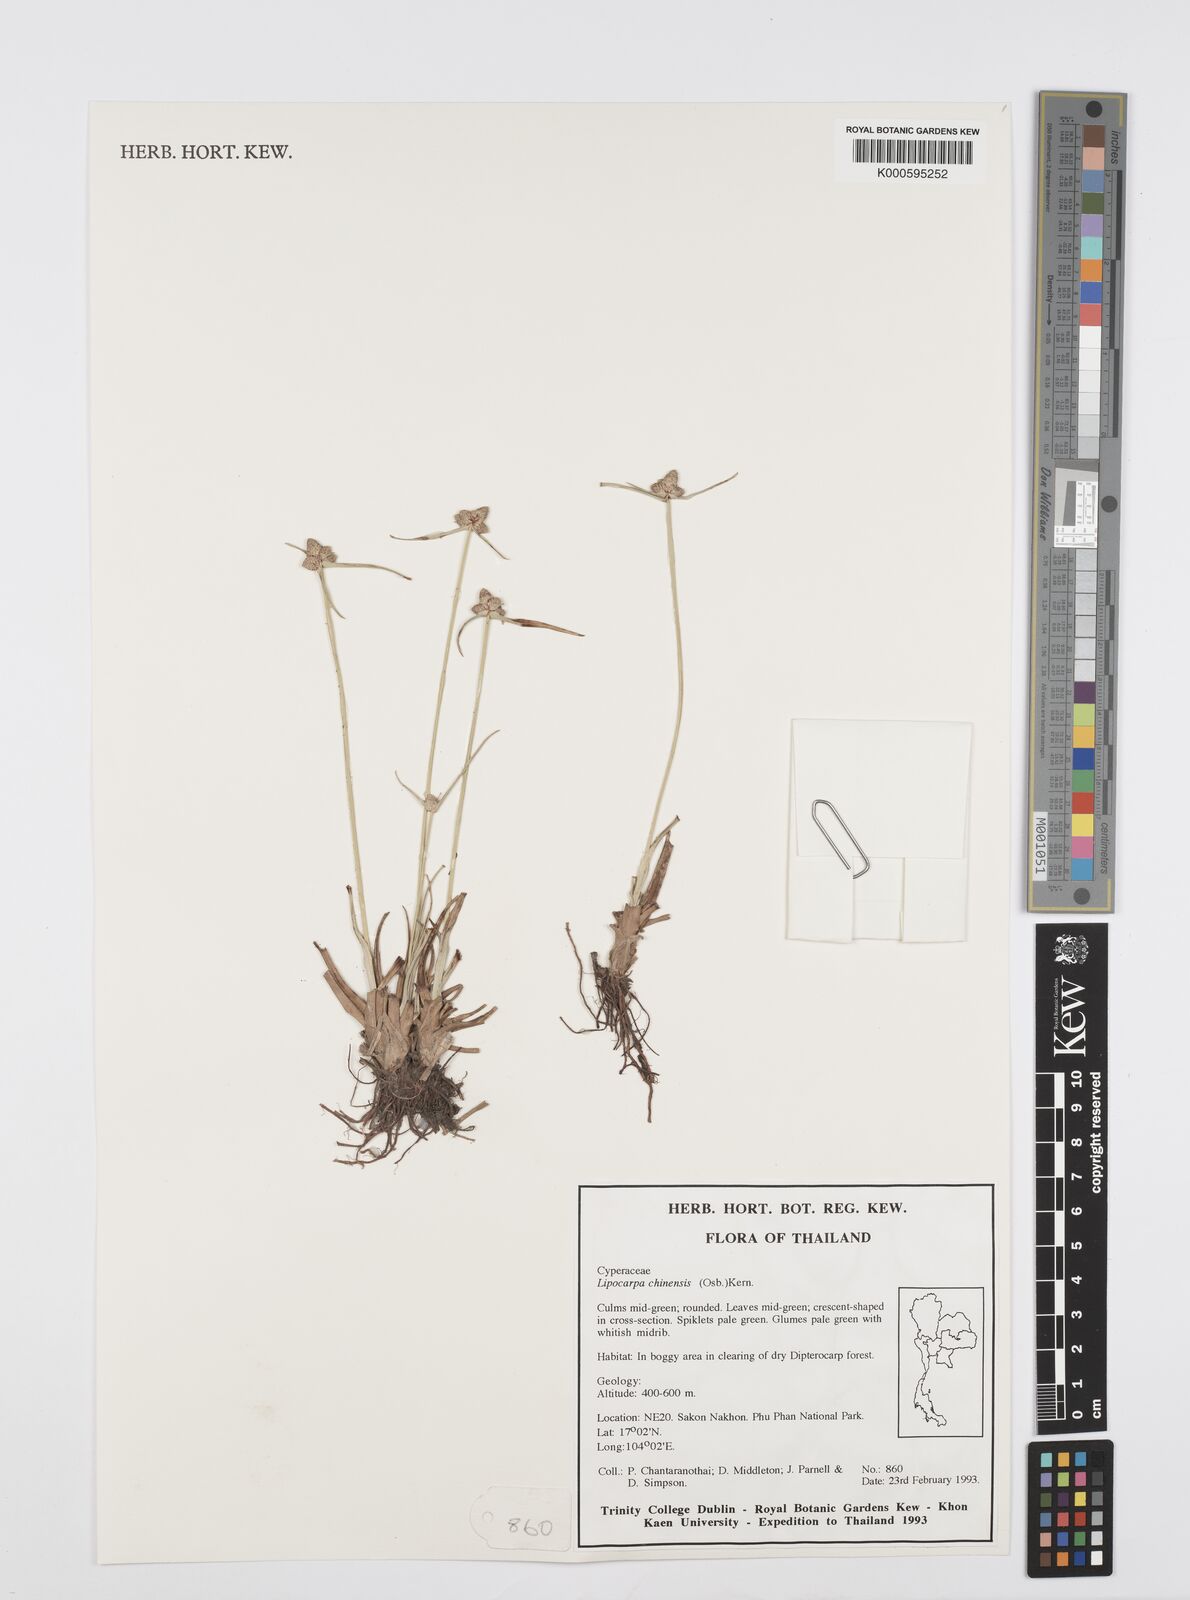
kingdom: Plantae
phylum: Tracheophyta
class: Liliopsida
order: Poales
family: Cyperaceae
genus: Cyperus
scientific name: Cyperus albescens
